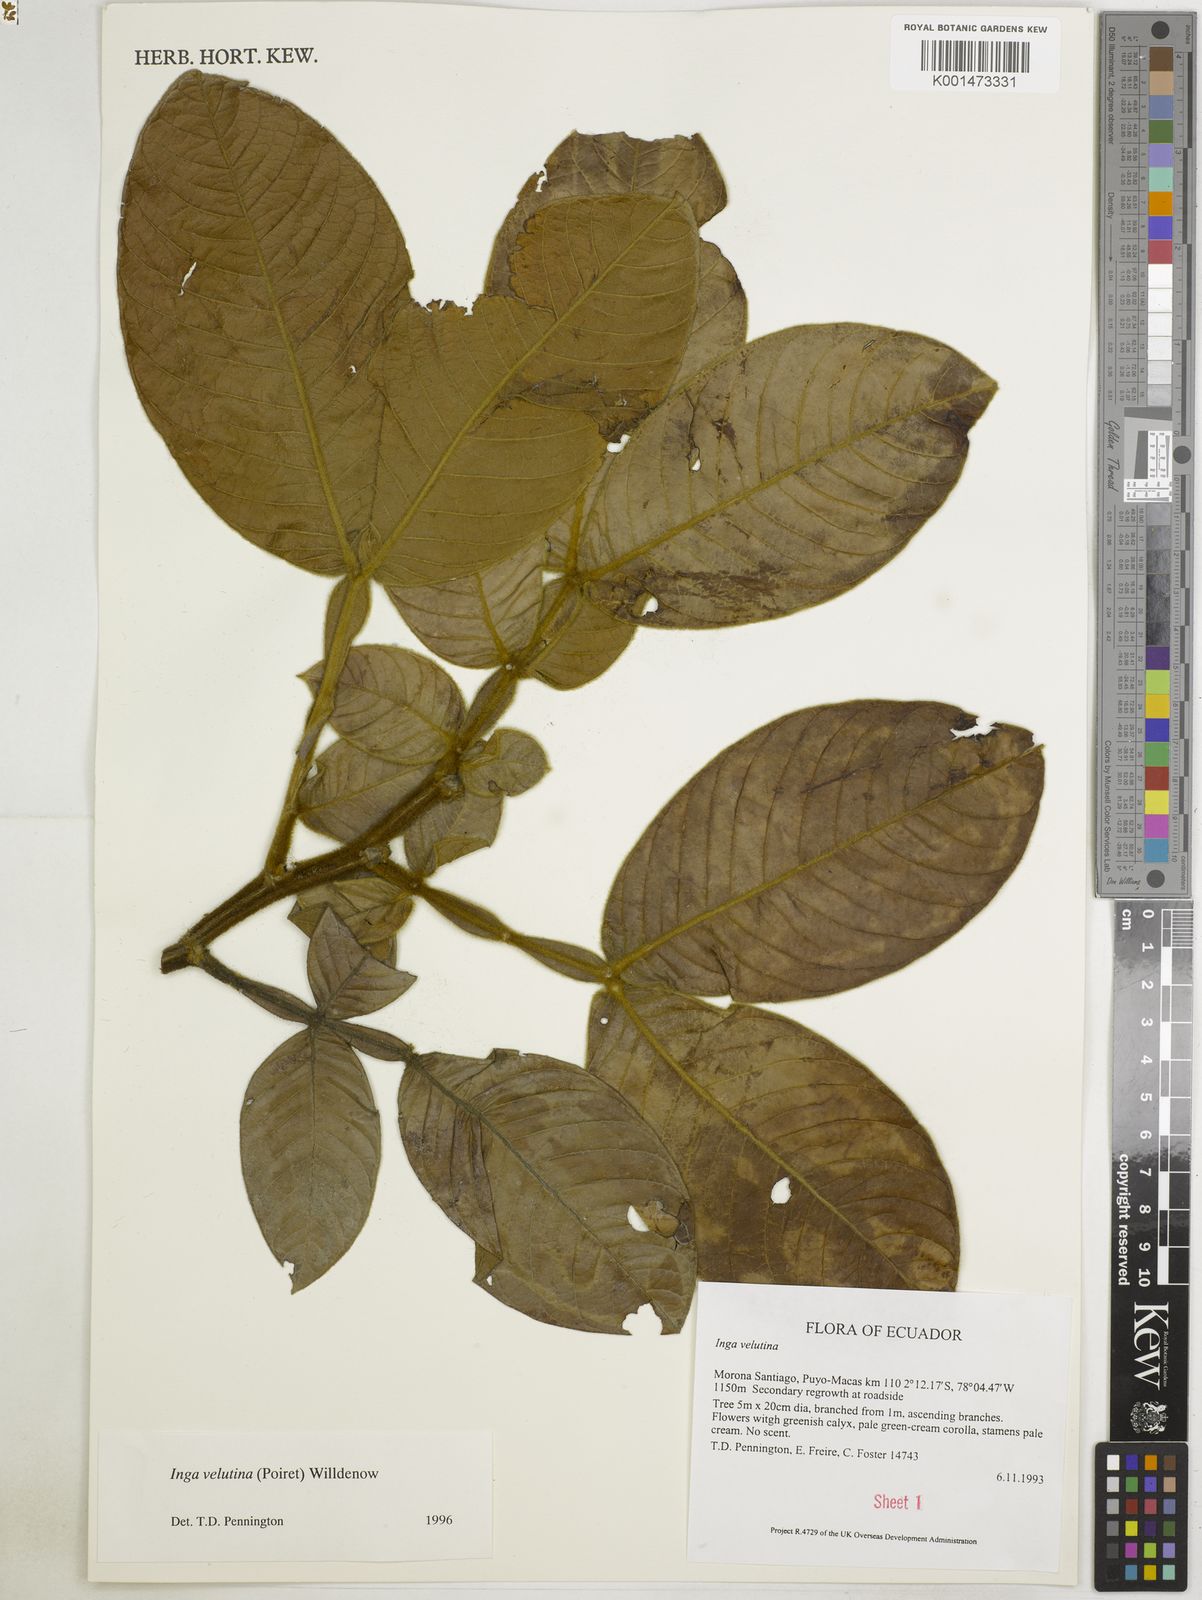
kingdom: Plantae
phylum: Tracheophyta
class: Magnoliopsida
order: Fabales
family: Fabaceae
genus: Inga
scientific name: Inga velutina
